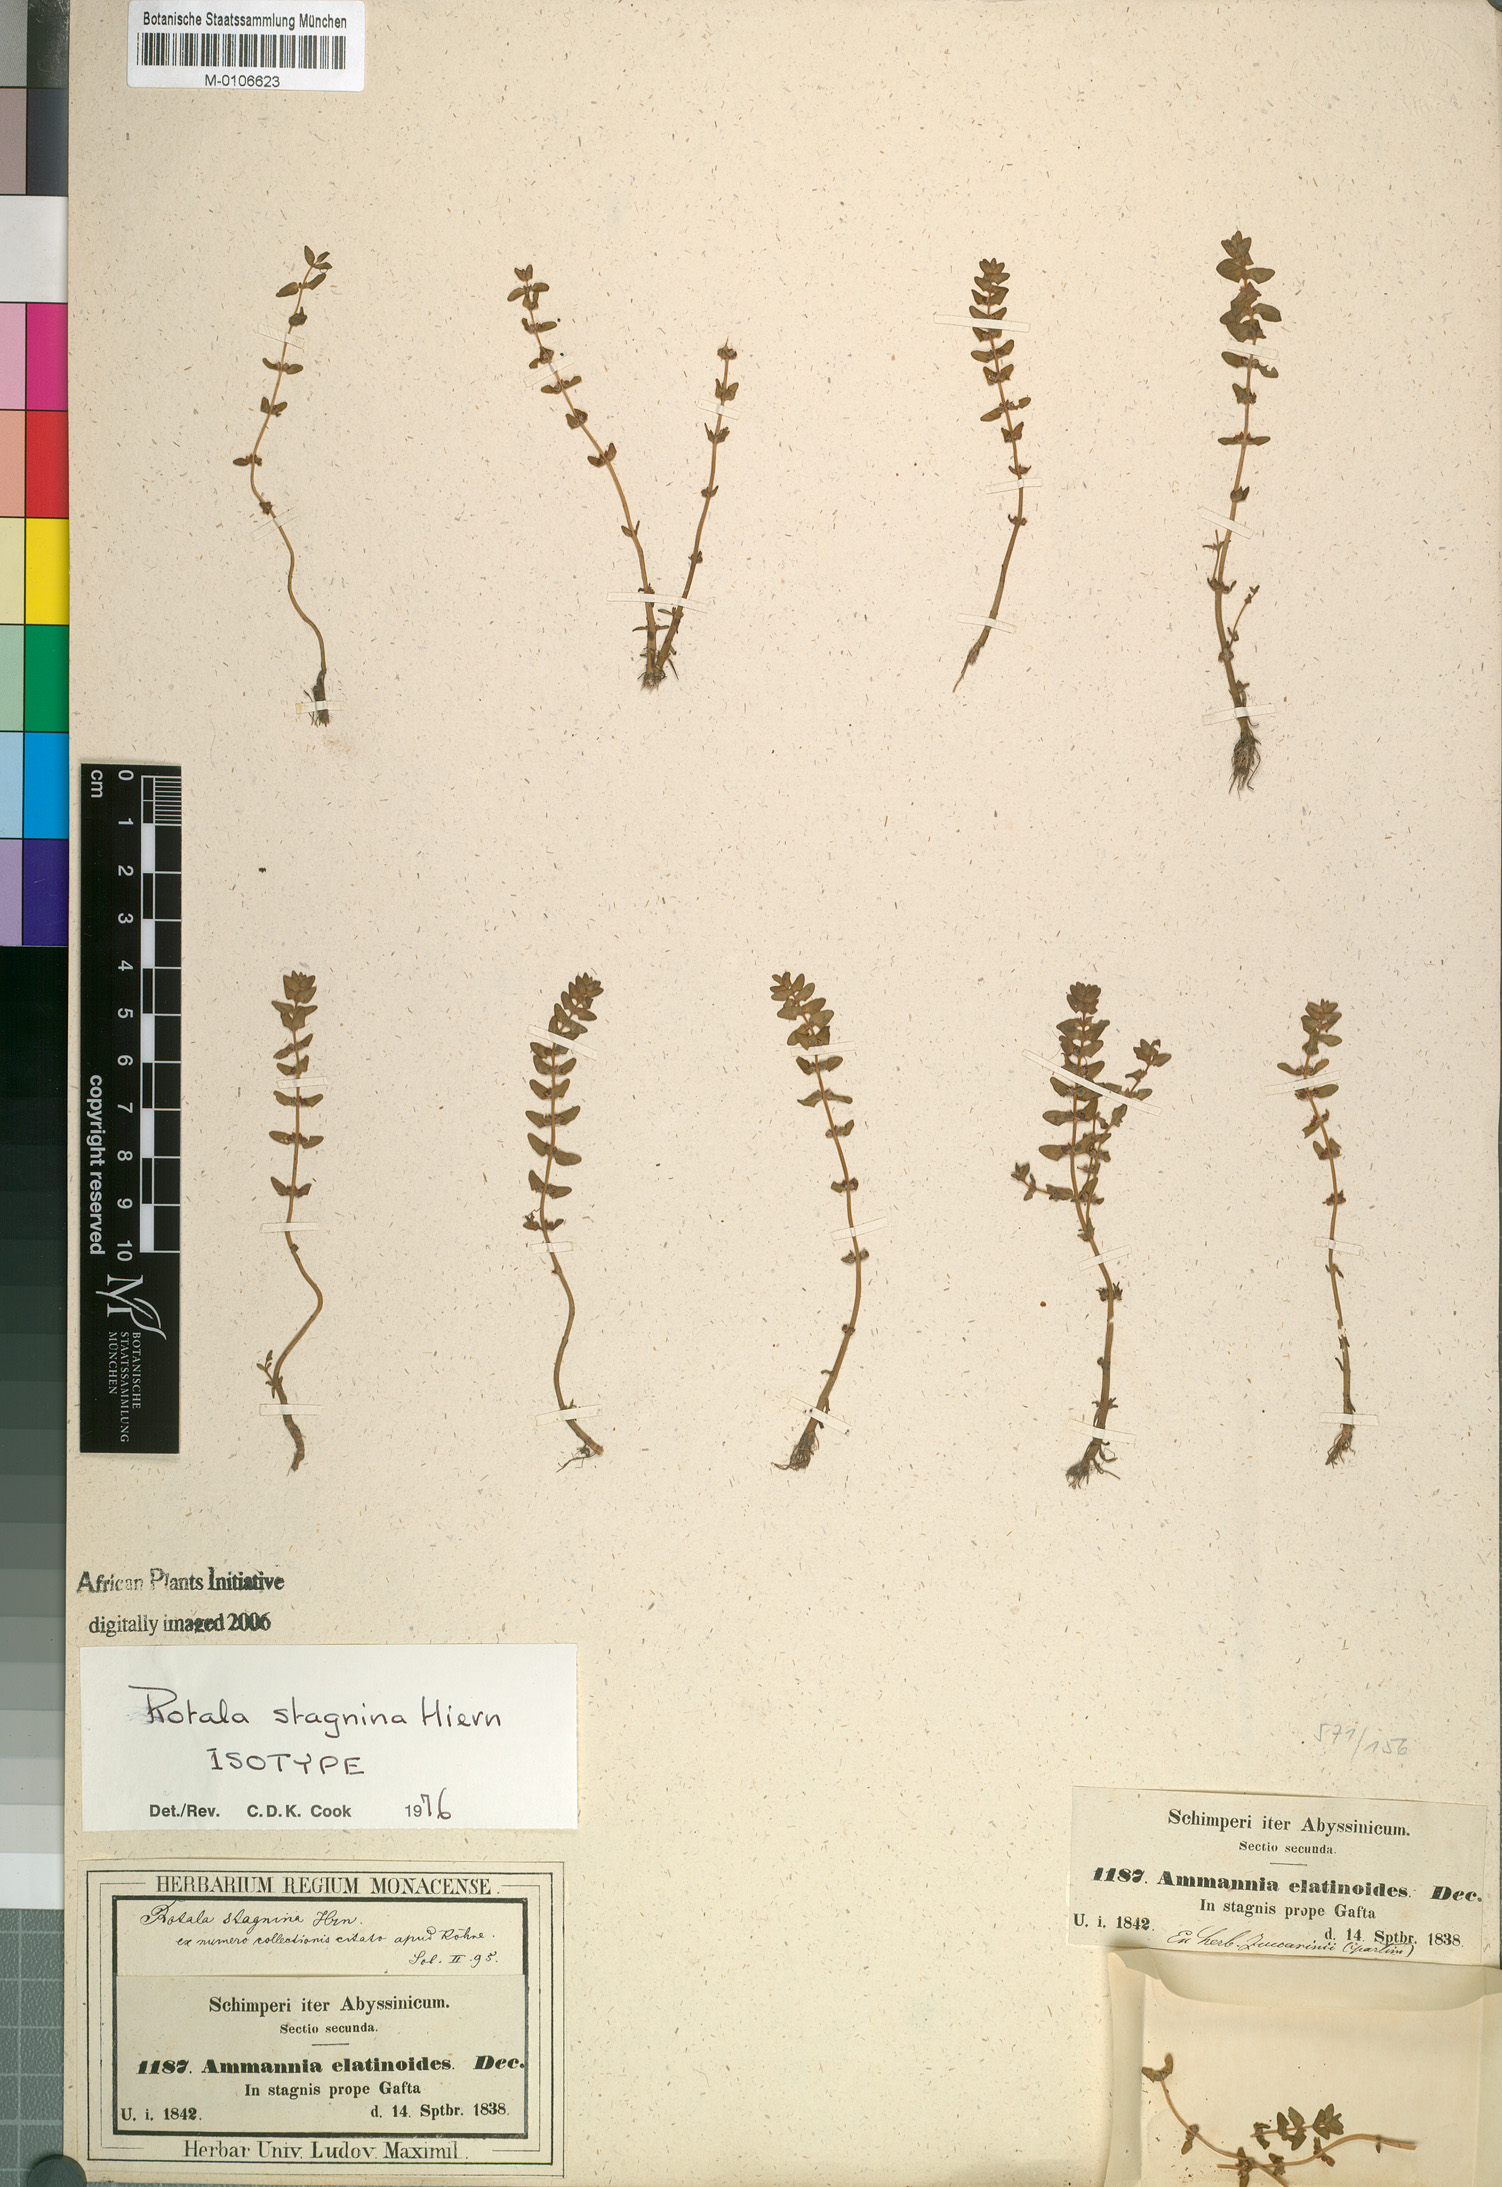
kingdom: Plantae
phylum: Tracheophyta
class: Magnoliopsida
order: Myrtales
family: Lythraceae
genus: Rotala
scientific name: Rotala stagnina
